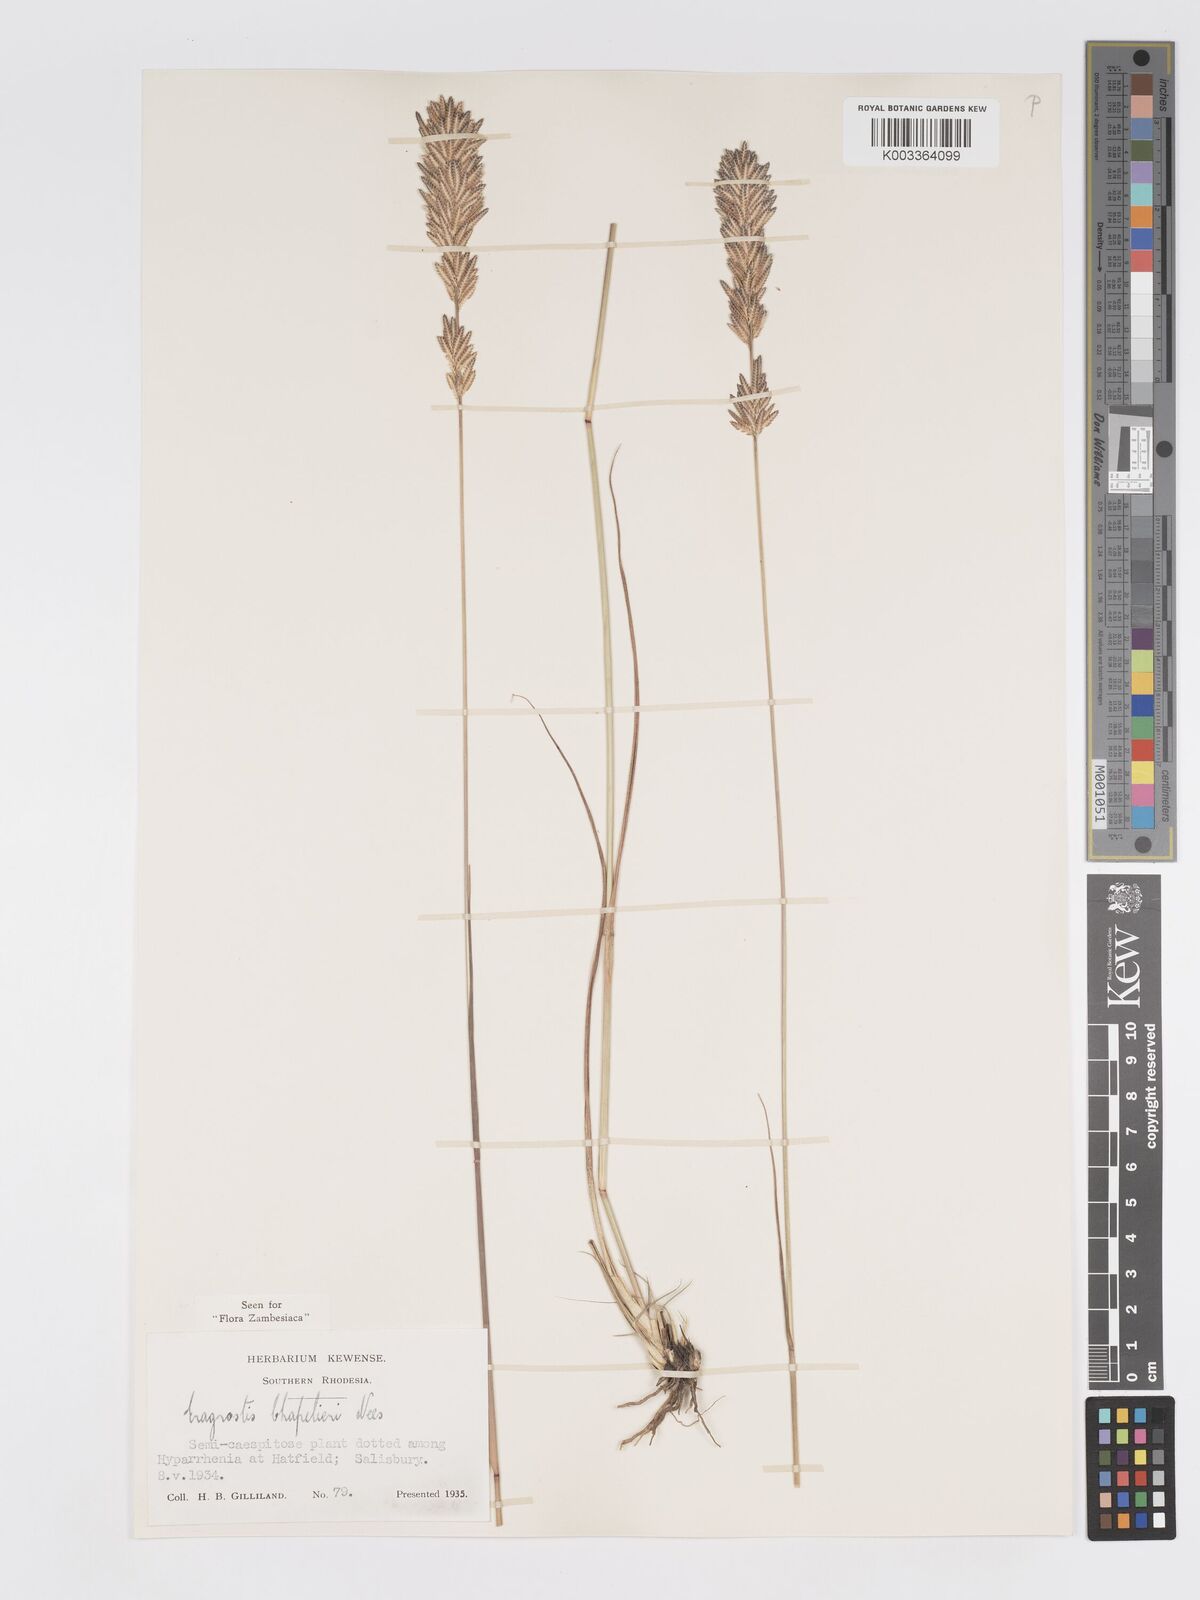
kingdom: Plantae
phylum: Tracheophyta
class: Liliopsida
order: Poales
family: Poaceae
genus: Eragrostis
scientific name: Eragrostis chapelieri
